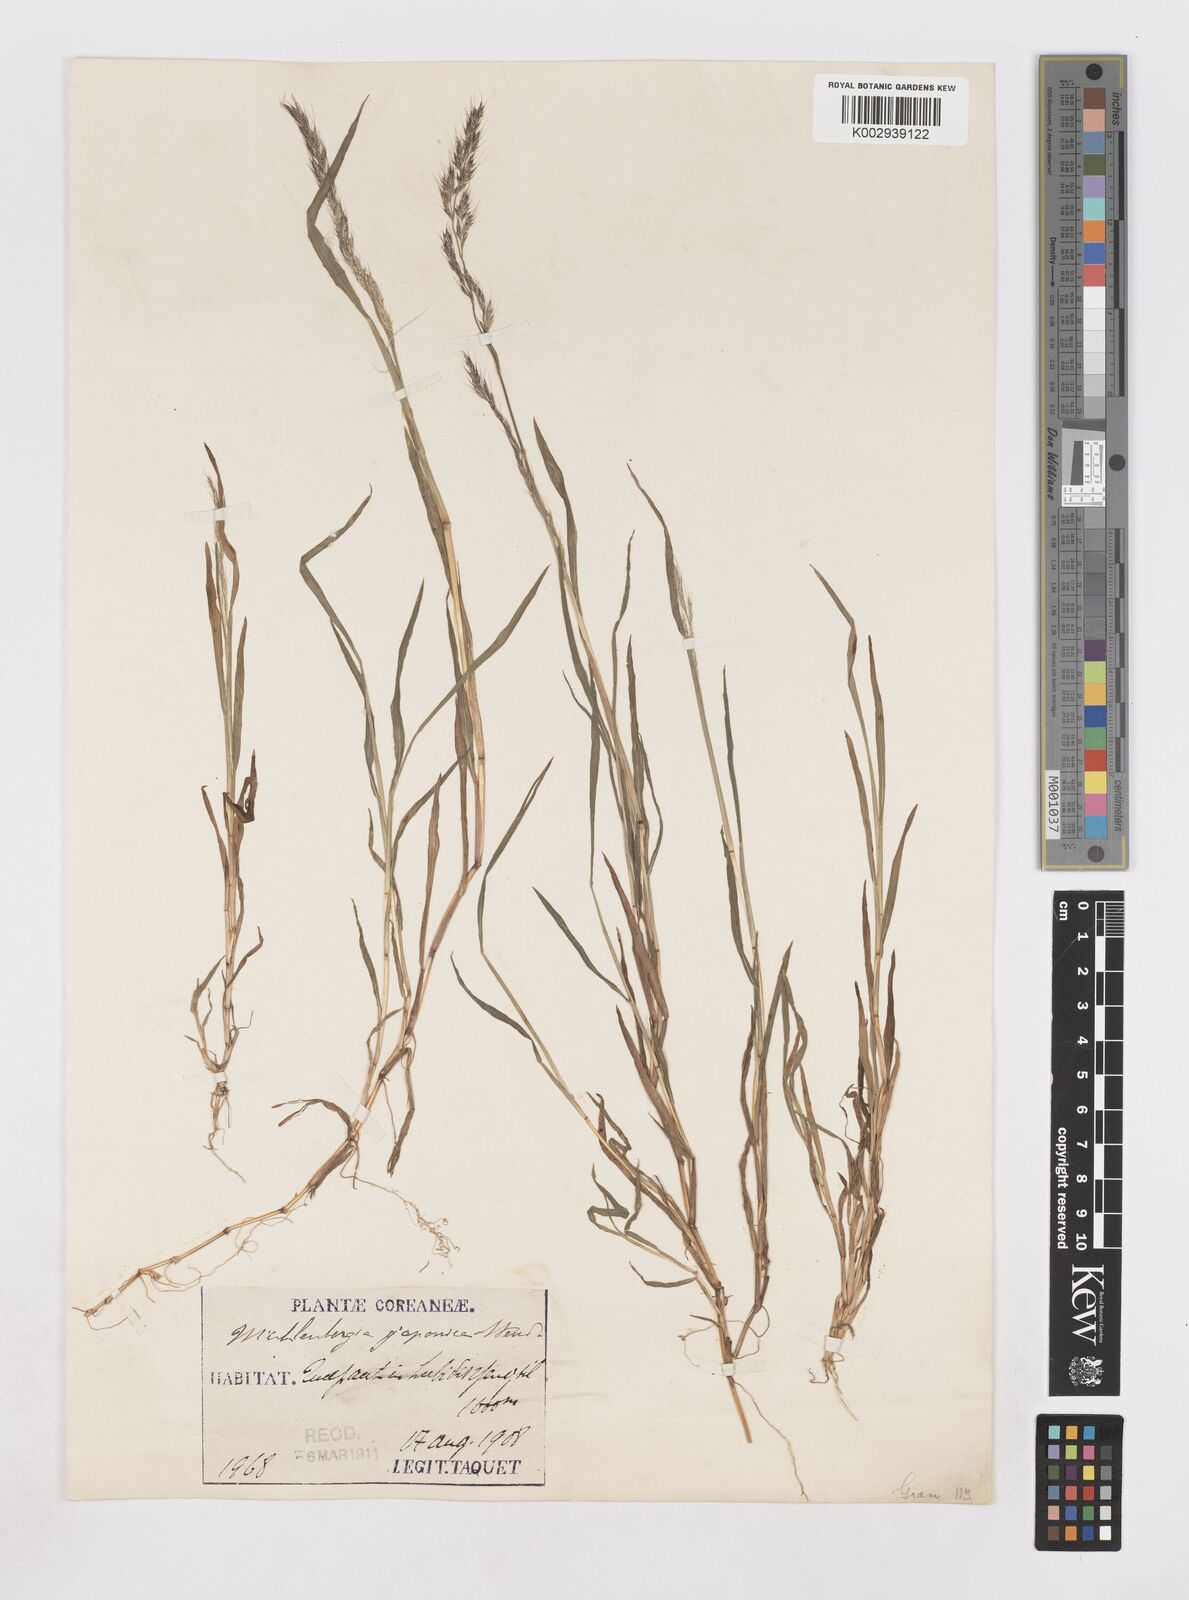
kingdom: Plantae
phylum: Tracheophyta
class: Liliopsida
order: Poales
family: Poaceae
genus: Muhlenbergia
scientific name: Muhlenbergia japonica
